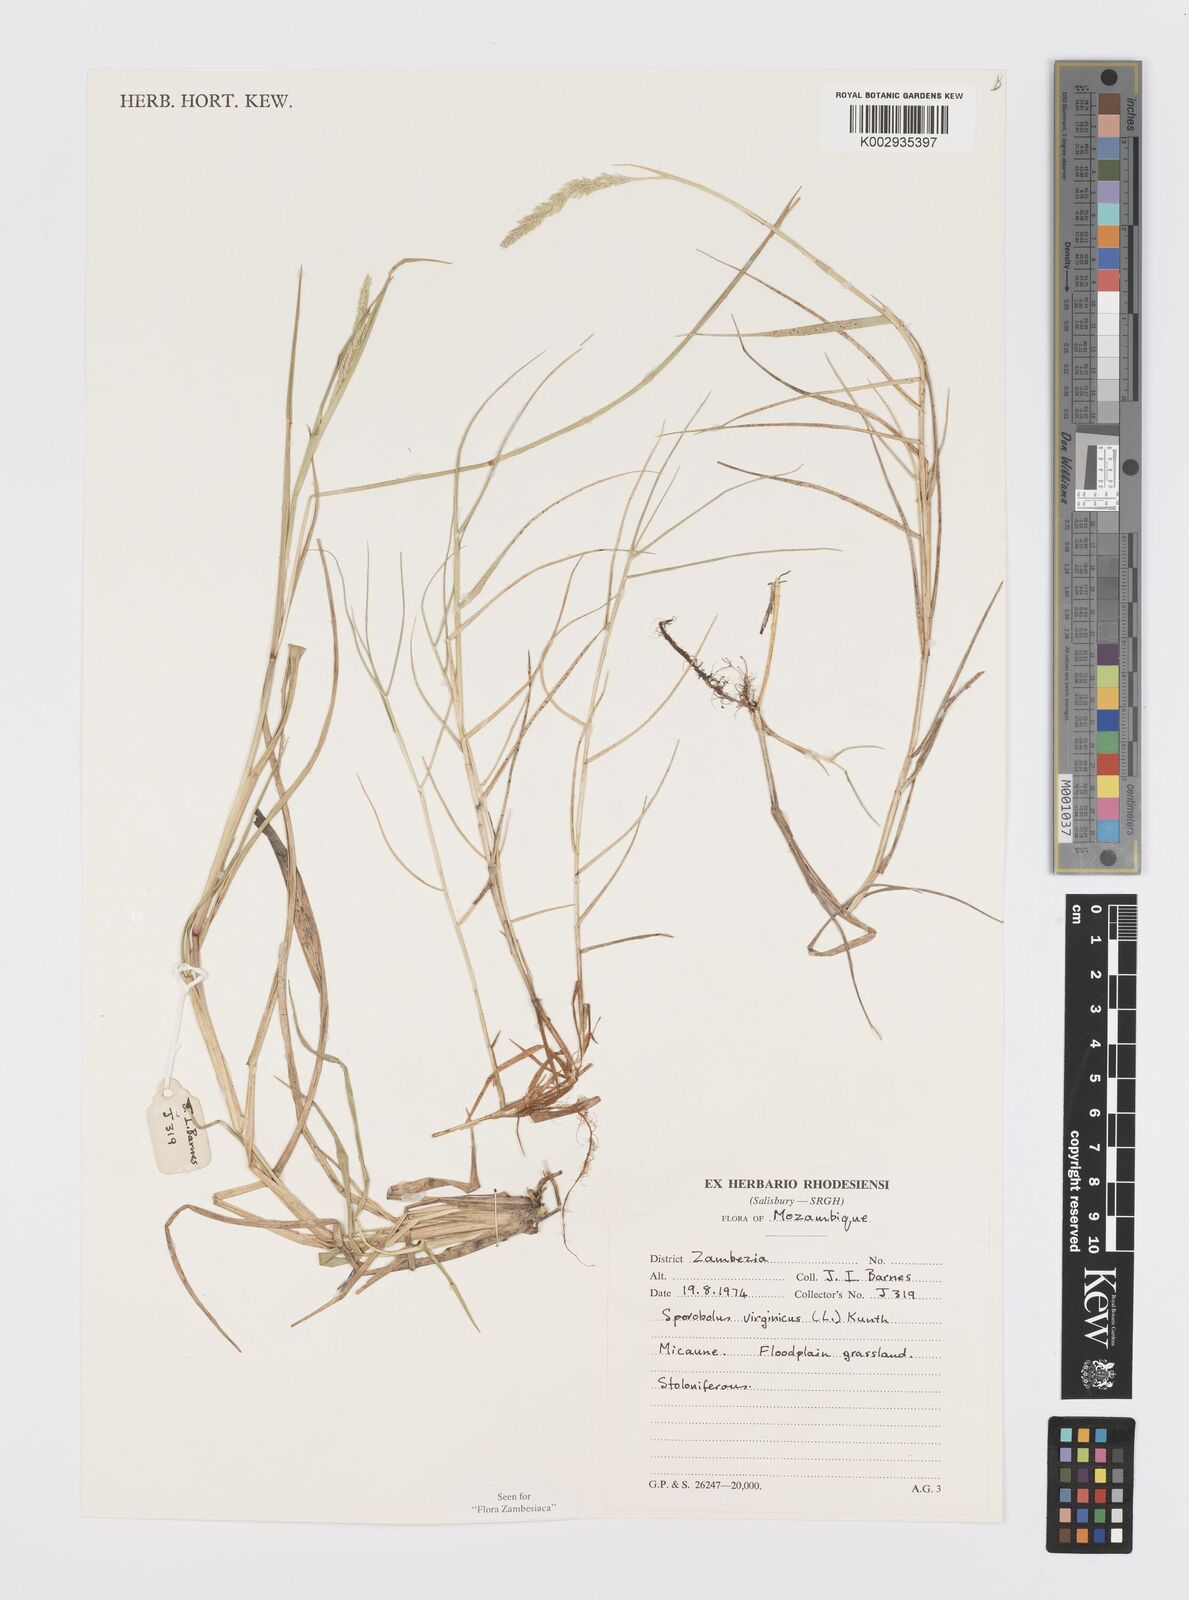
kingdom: Plantae
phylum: Tracheophyta
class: Liliopsida
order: Poales
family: Poaceae
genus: Sporobolus
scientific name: Sporobolus virginicus
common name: Beach dropseed
